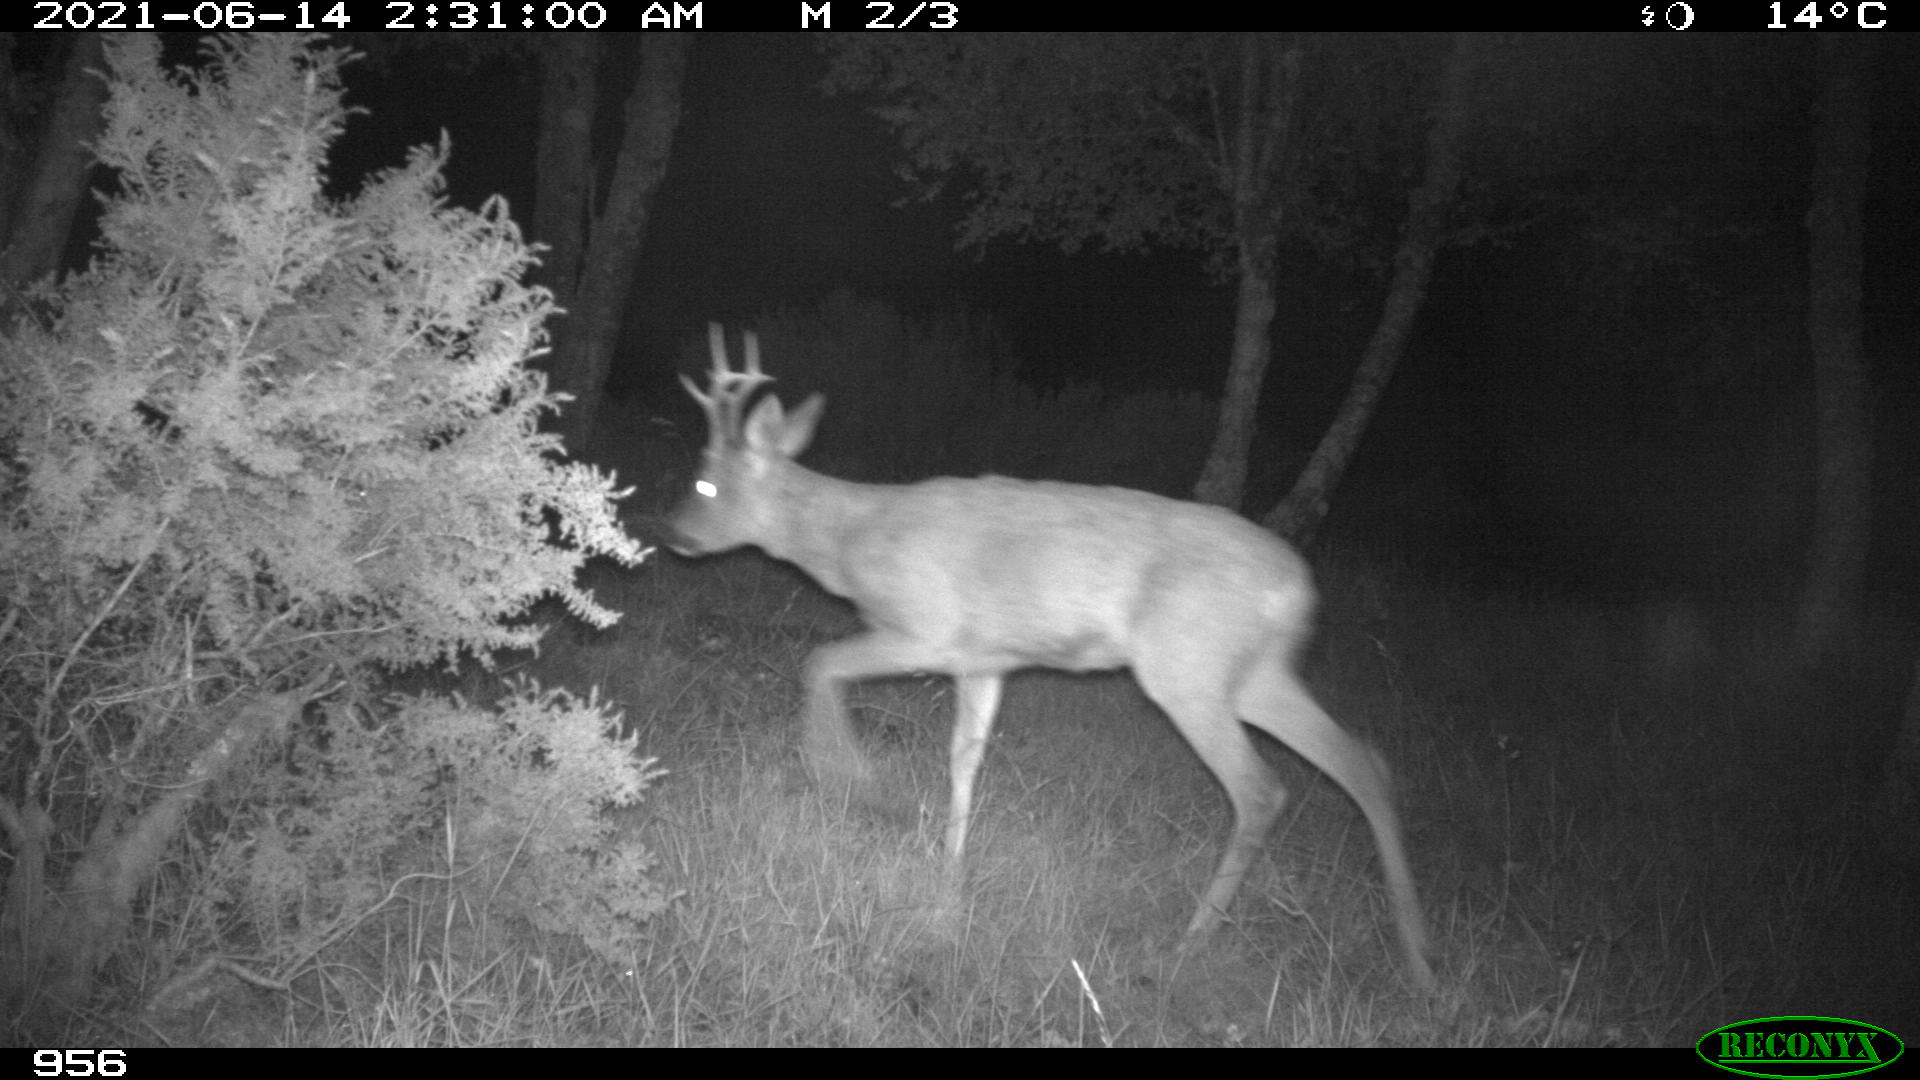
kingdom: Animalia
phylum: Chordata
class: Mammalia
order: Artiodactyla
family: Cervidae
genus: Capreolus
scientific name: Capreolus capreolus
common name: Western roe deer
